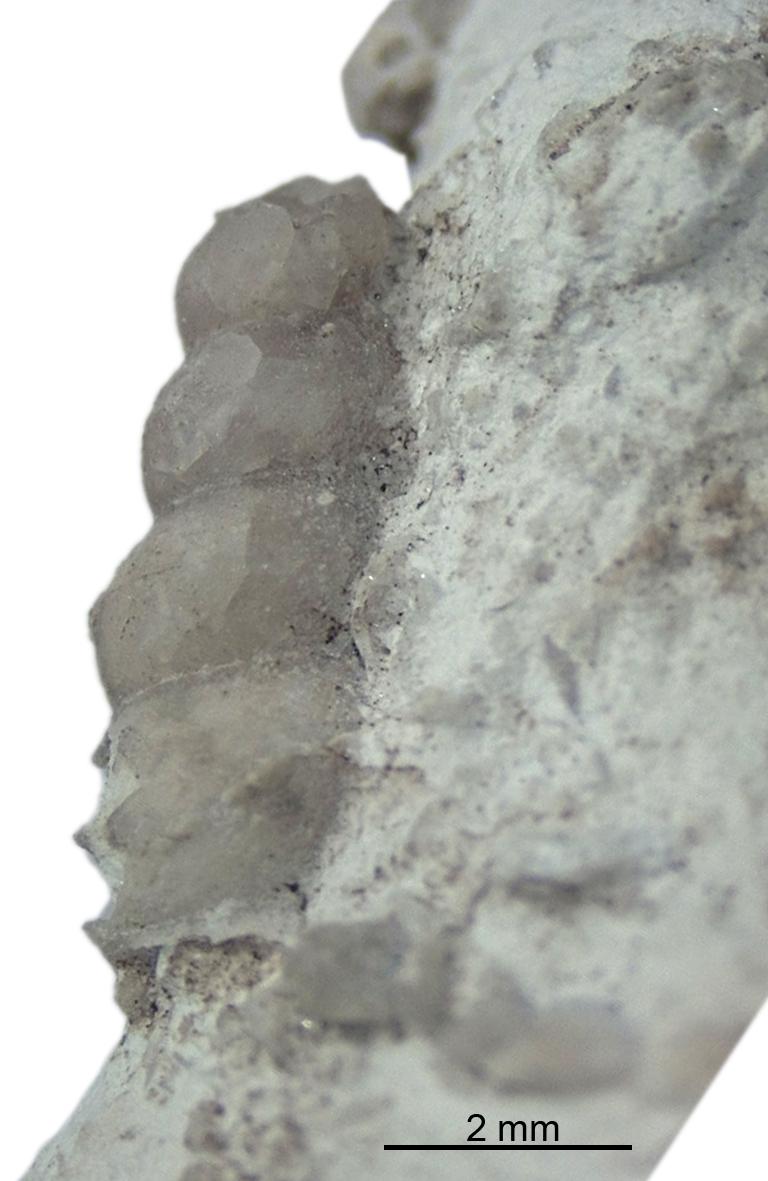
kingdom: Animalia
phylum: Mollusca
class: Gastropoda
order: Pleurotomariida
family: Murchisoniidae
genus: Hormotoma
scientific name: Hormotoma
